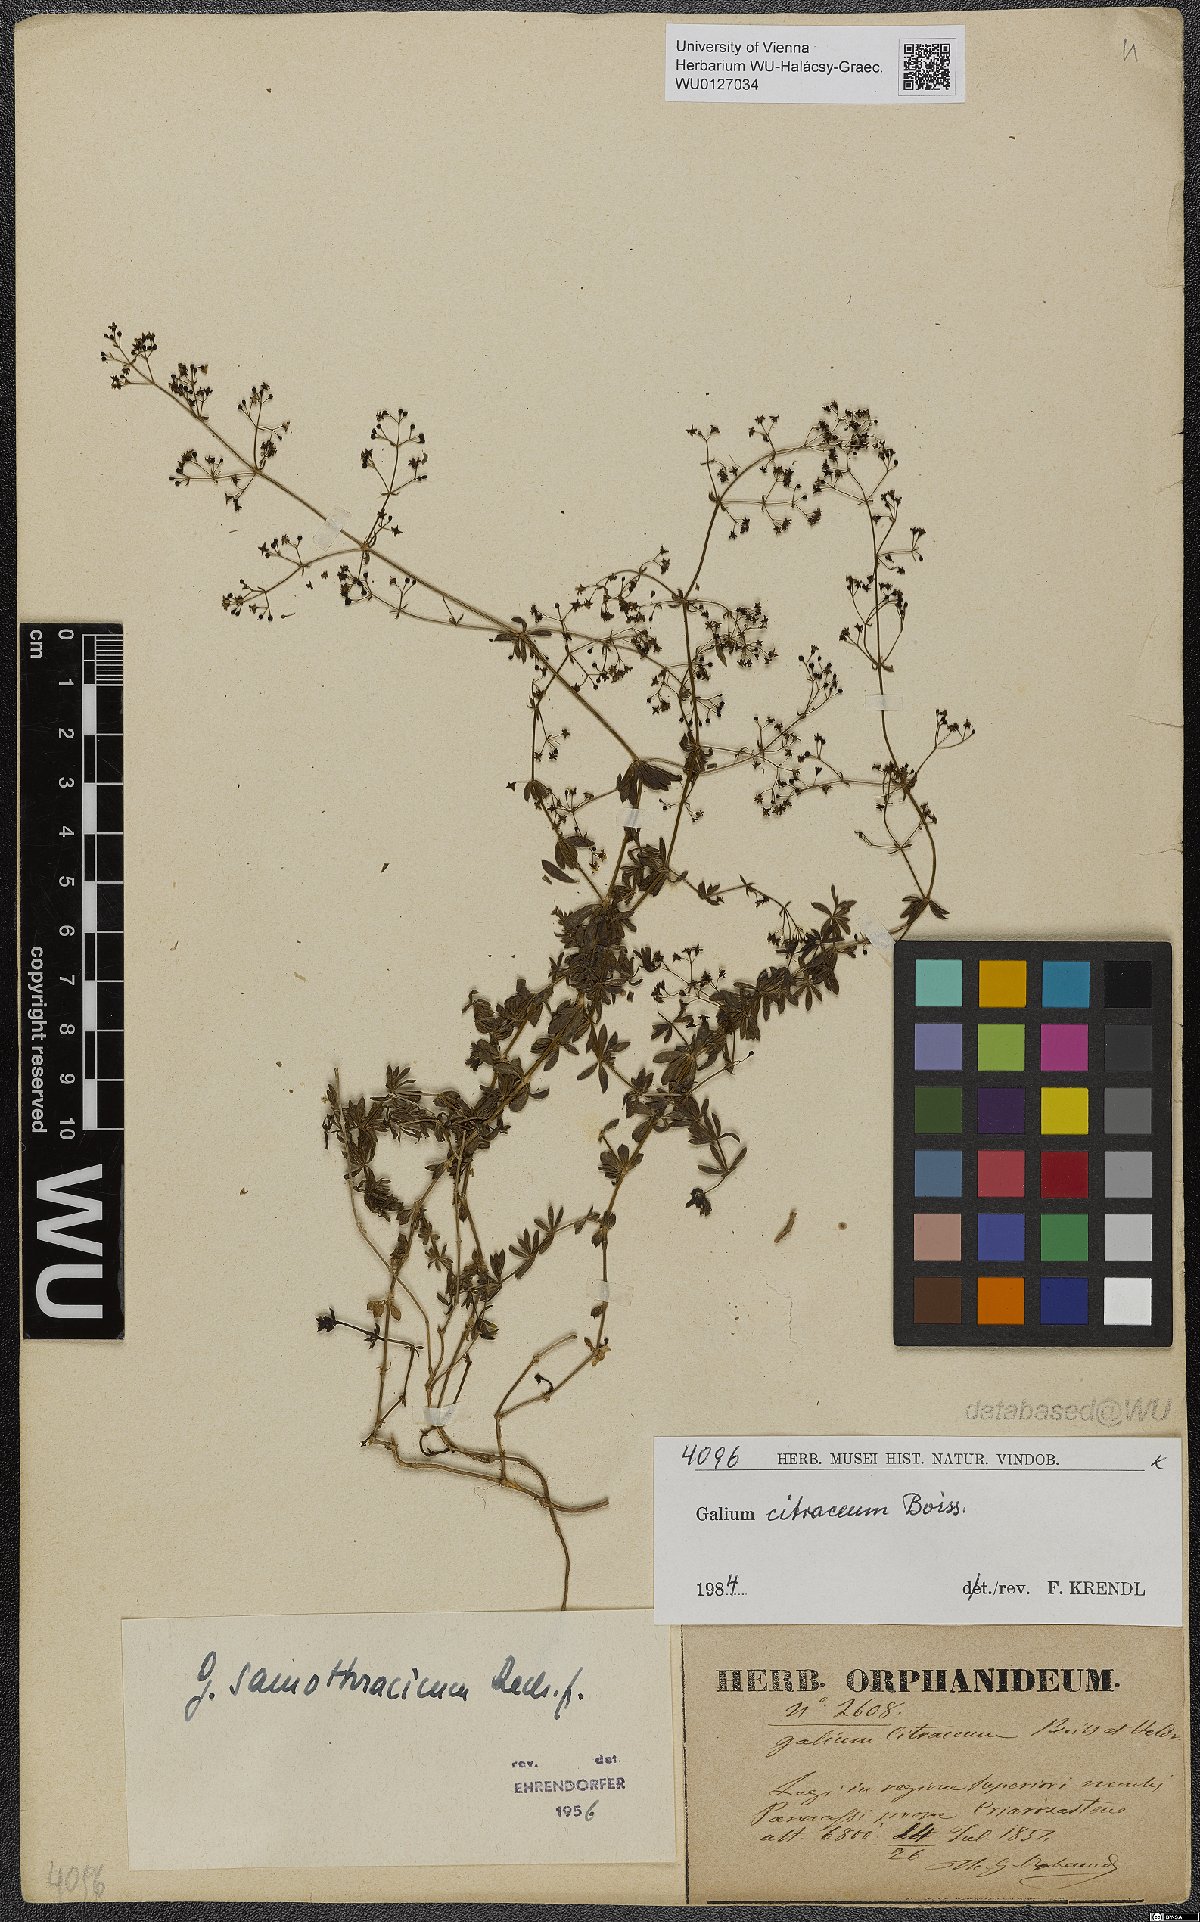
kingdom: Plantae
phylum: Tracheophyta
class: Magnoliopsida
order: Gentianales
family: Rubiaceae
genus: Galium
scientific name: Galium citraceum
